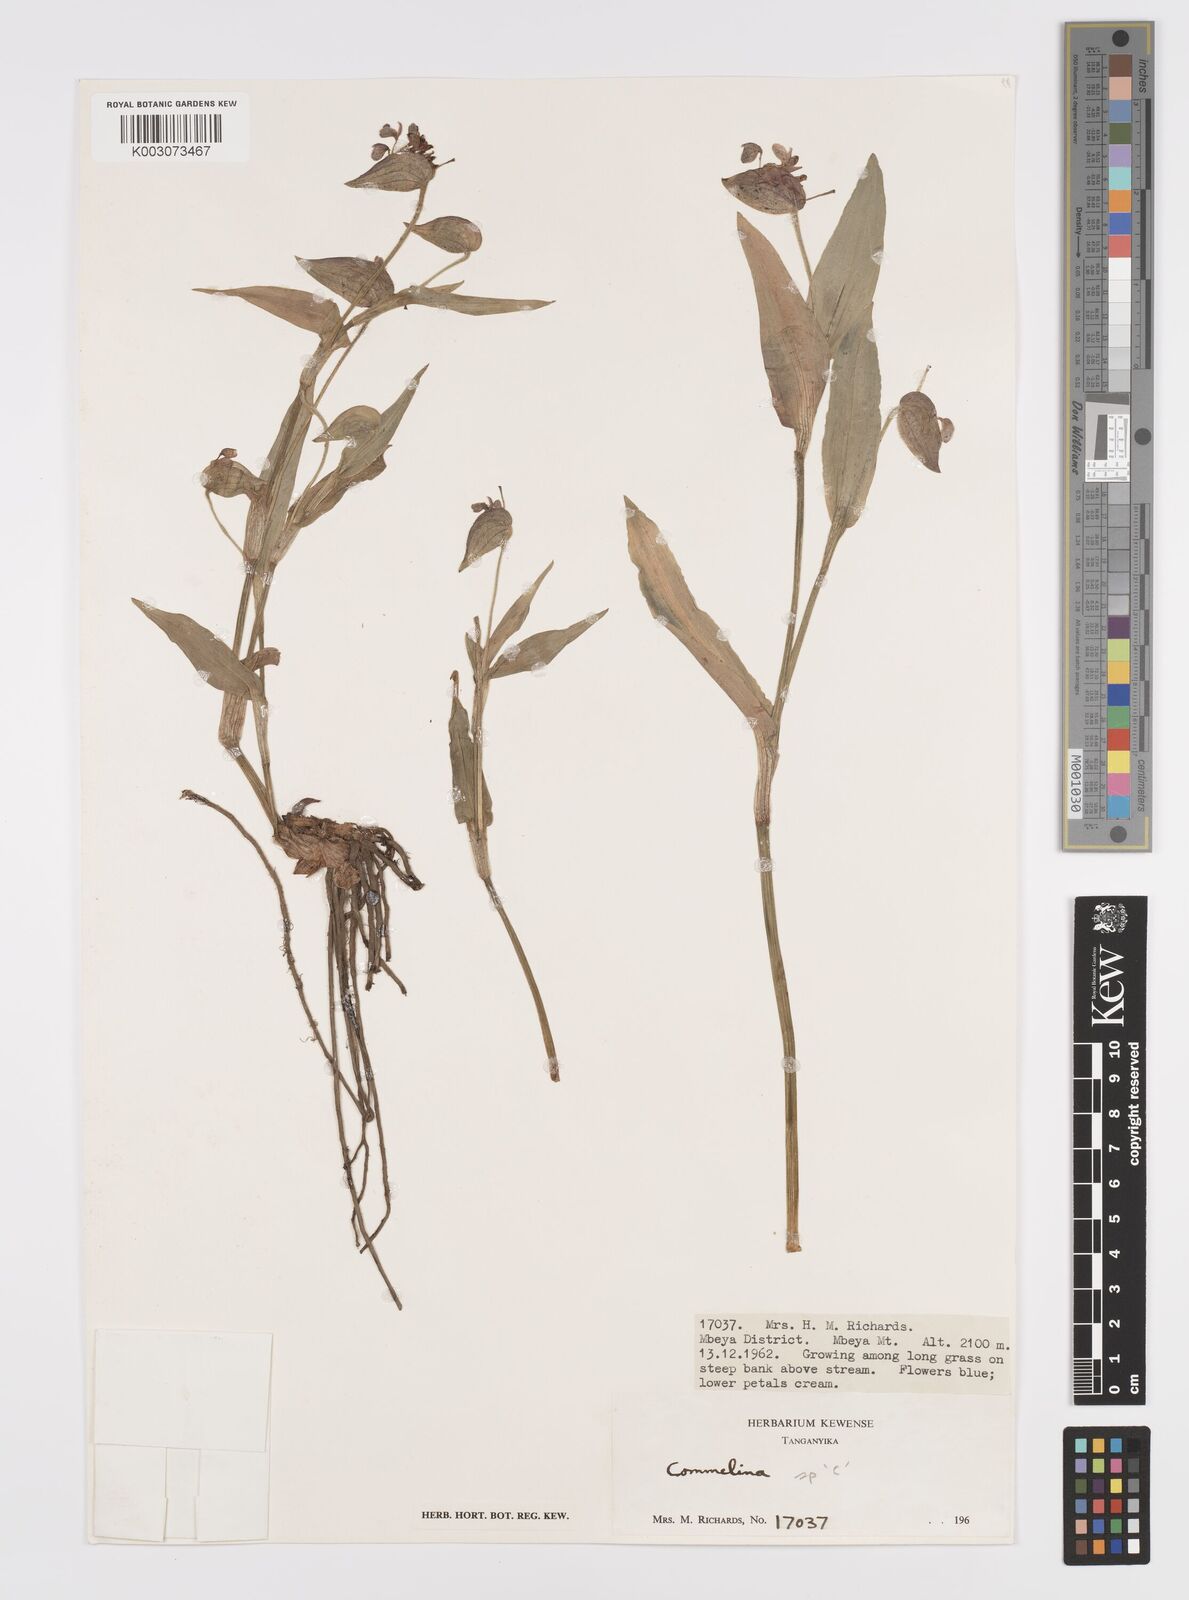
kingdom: Plantae
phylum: Tracheophyta
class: Liliopsida
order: Commelinales
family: Commelinaceae
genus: Commelina
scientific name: Commelina kituloensis
